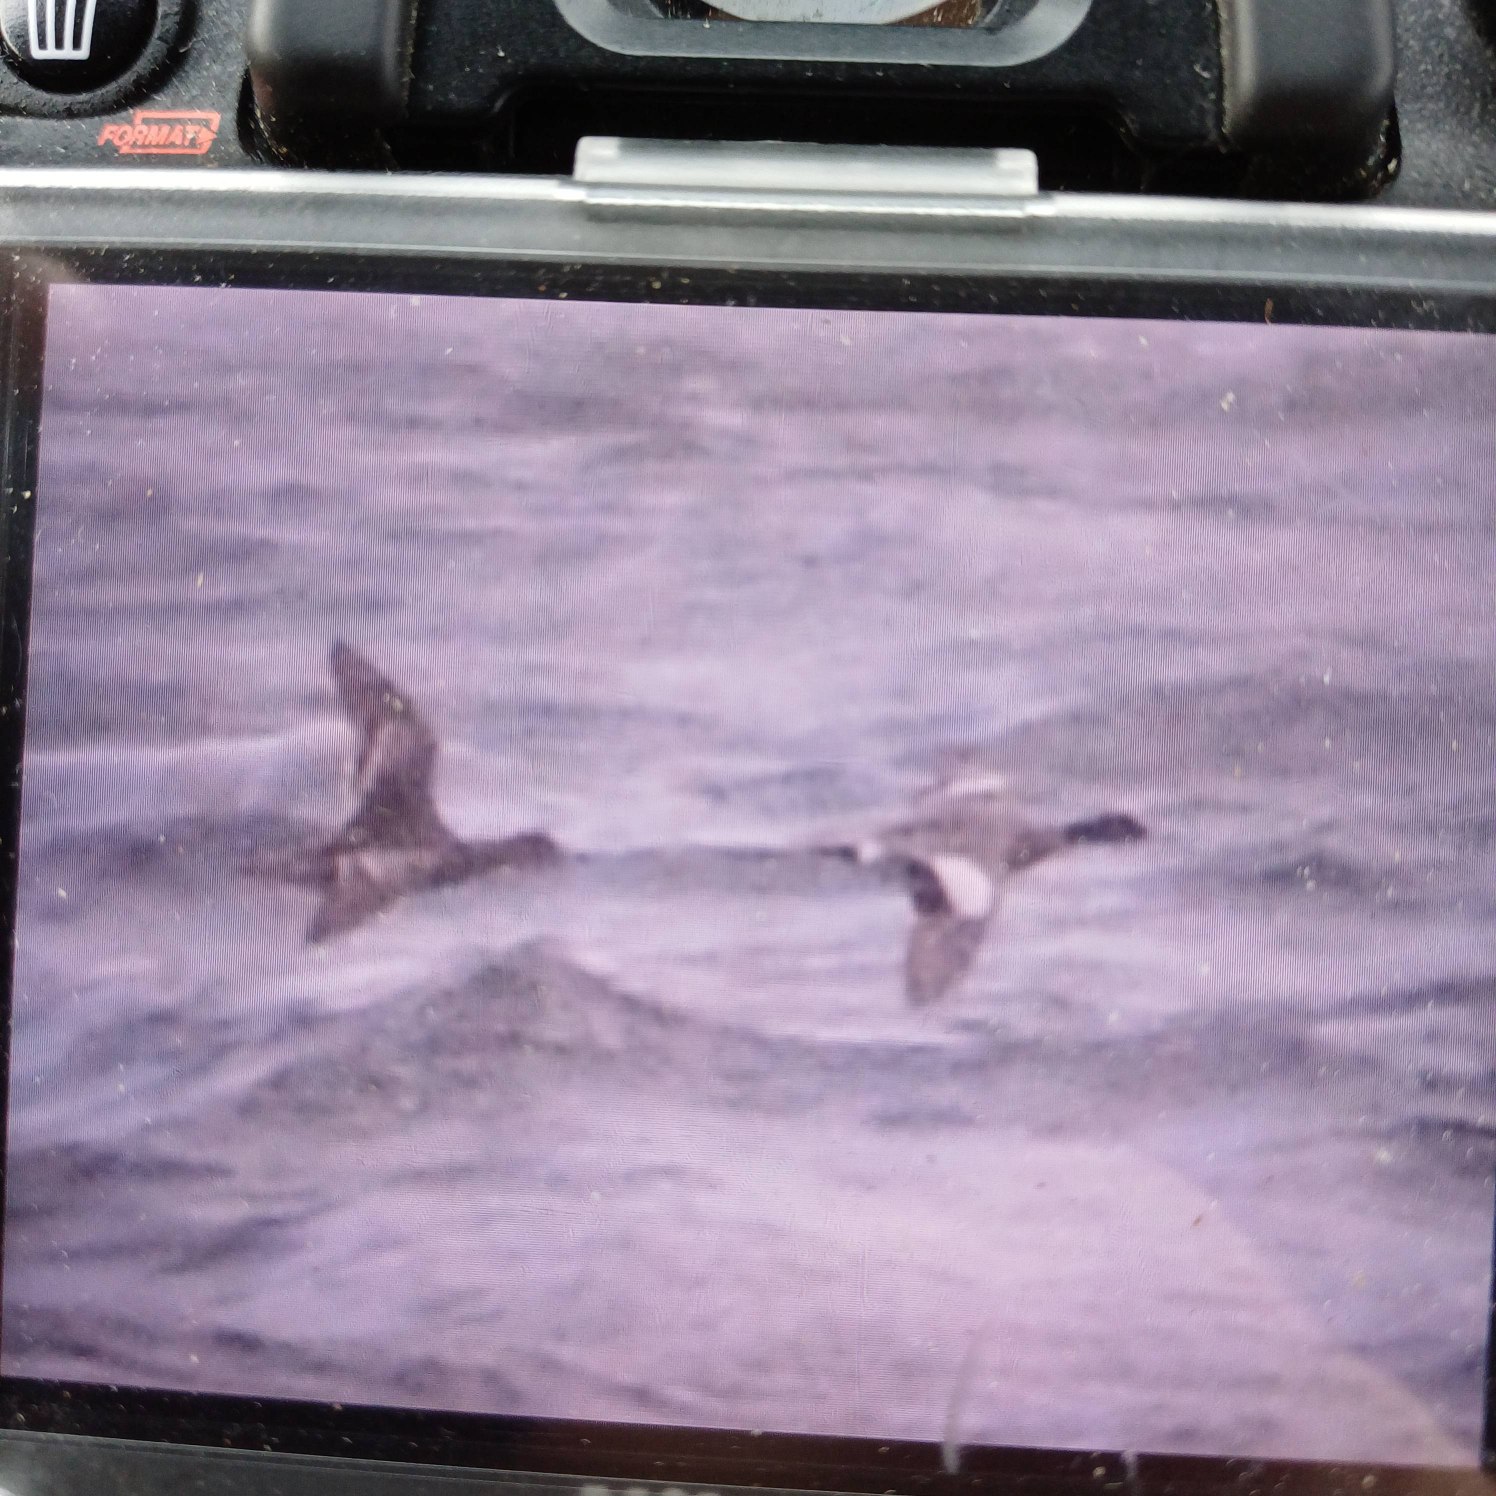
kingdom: Animalia
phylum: Chordata
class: Aves
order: Anseriformes
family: Anatidae
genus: Mareca
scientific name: Mareca penelope
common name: Pibeand
